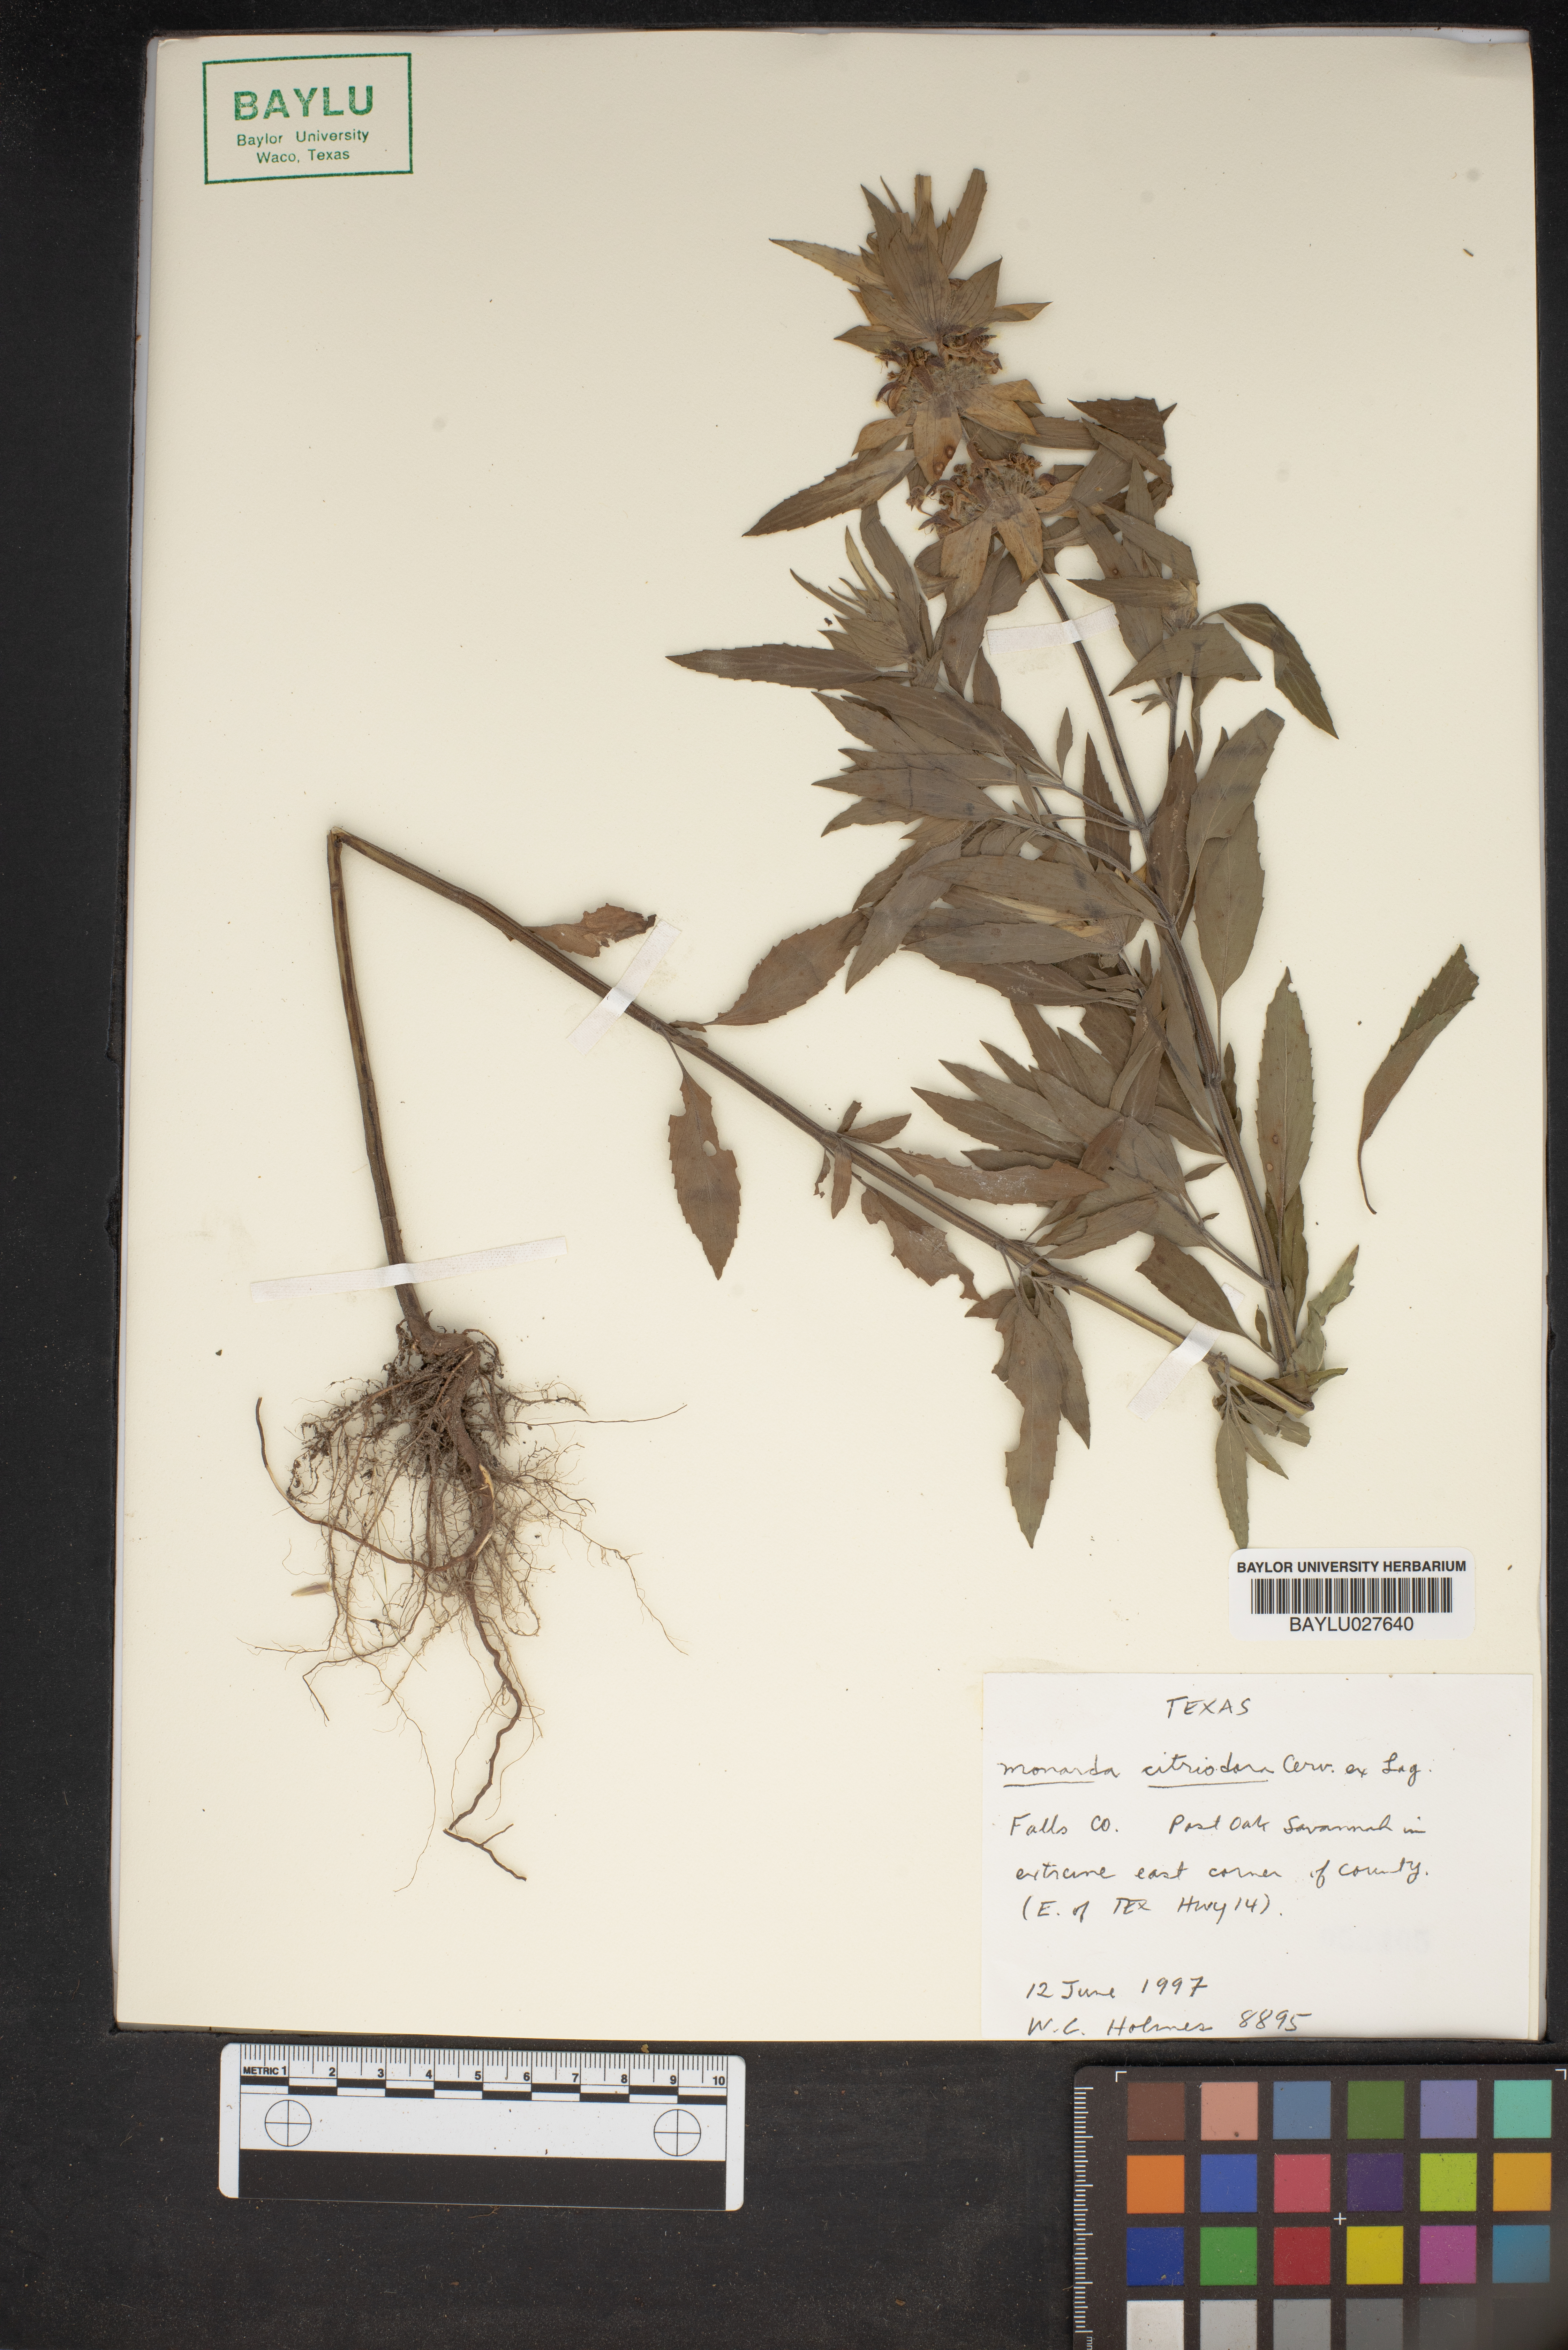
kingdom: Plantae
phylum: Tracheophyta
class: Magnoliopsida
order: Lamiales
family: Lamiaceae
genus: Monarda
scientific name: Monarda citriodora
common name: Lemon beebalm
